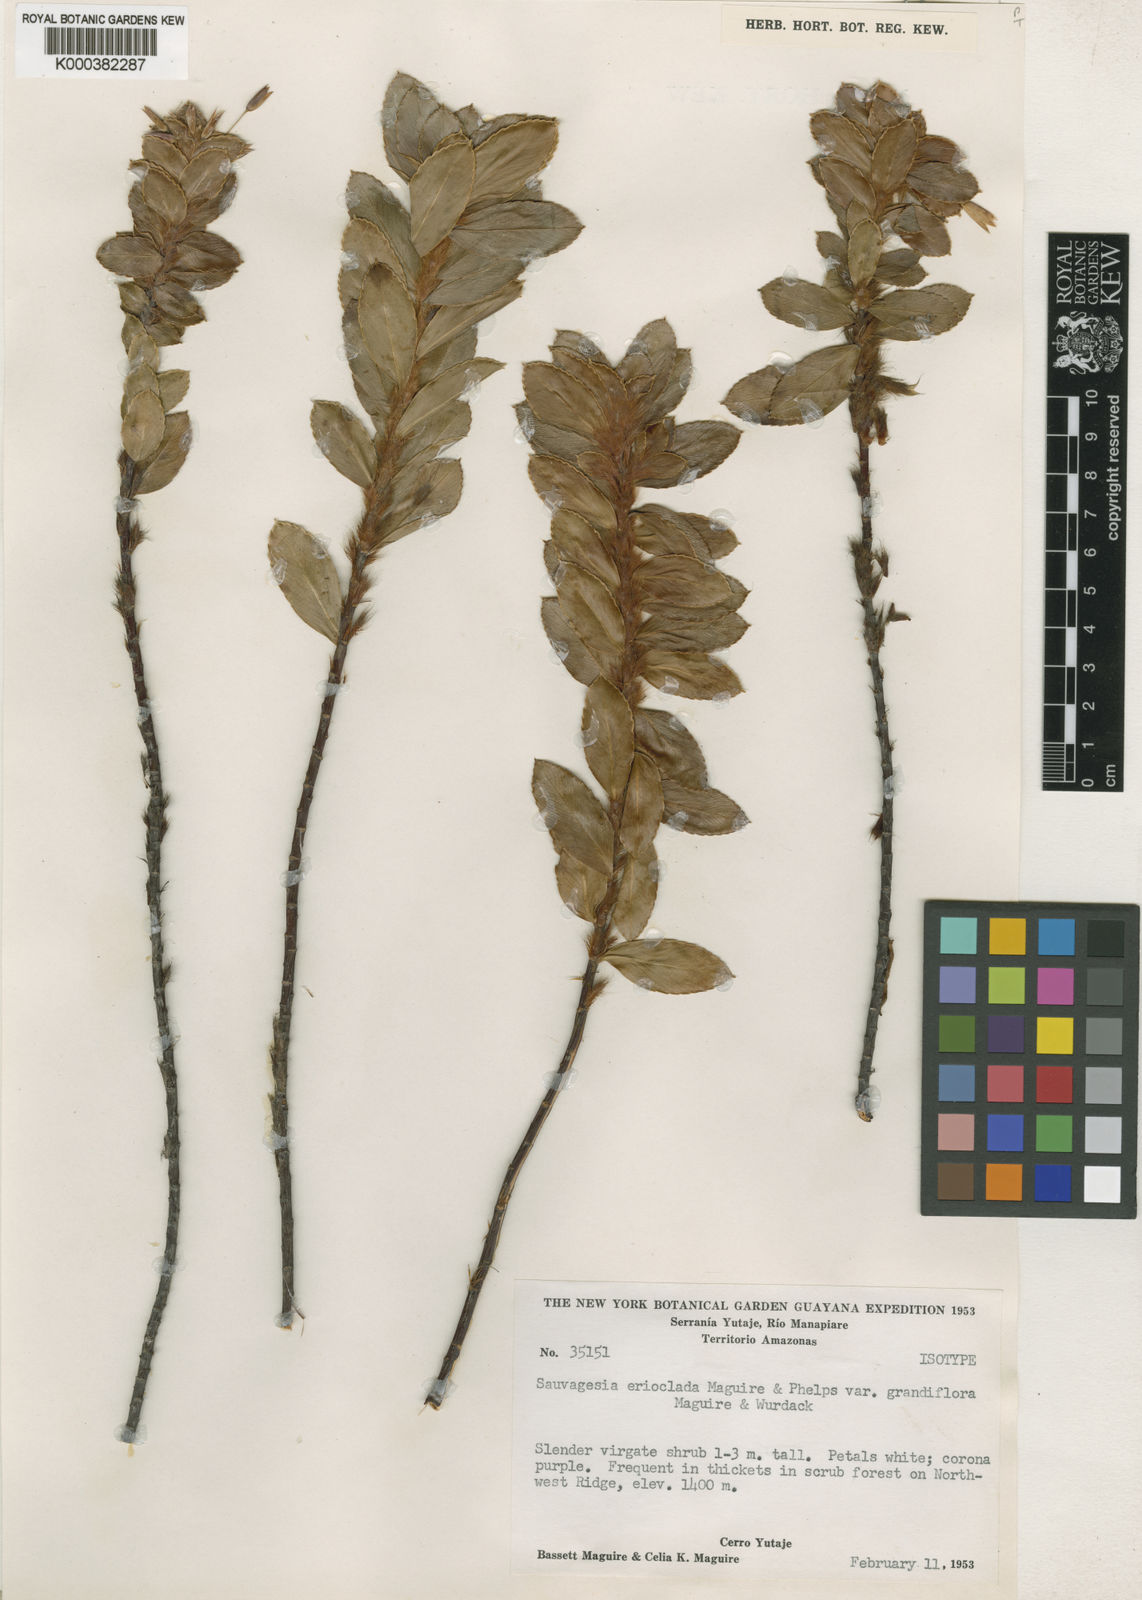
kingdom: Plantae
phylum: Tracheophyta
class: Magnoliopsida
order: Malpighiales
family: Ochnaceae
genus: Sauvagesia
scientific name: Sauvagesia erioclada
